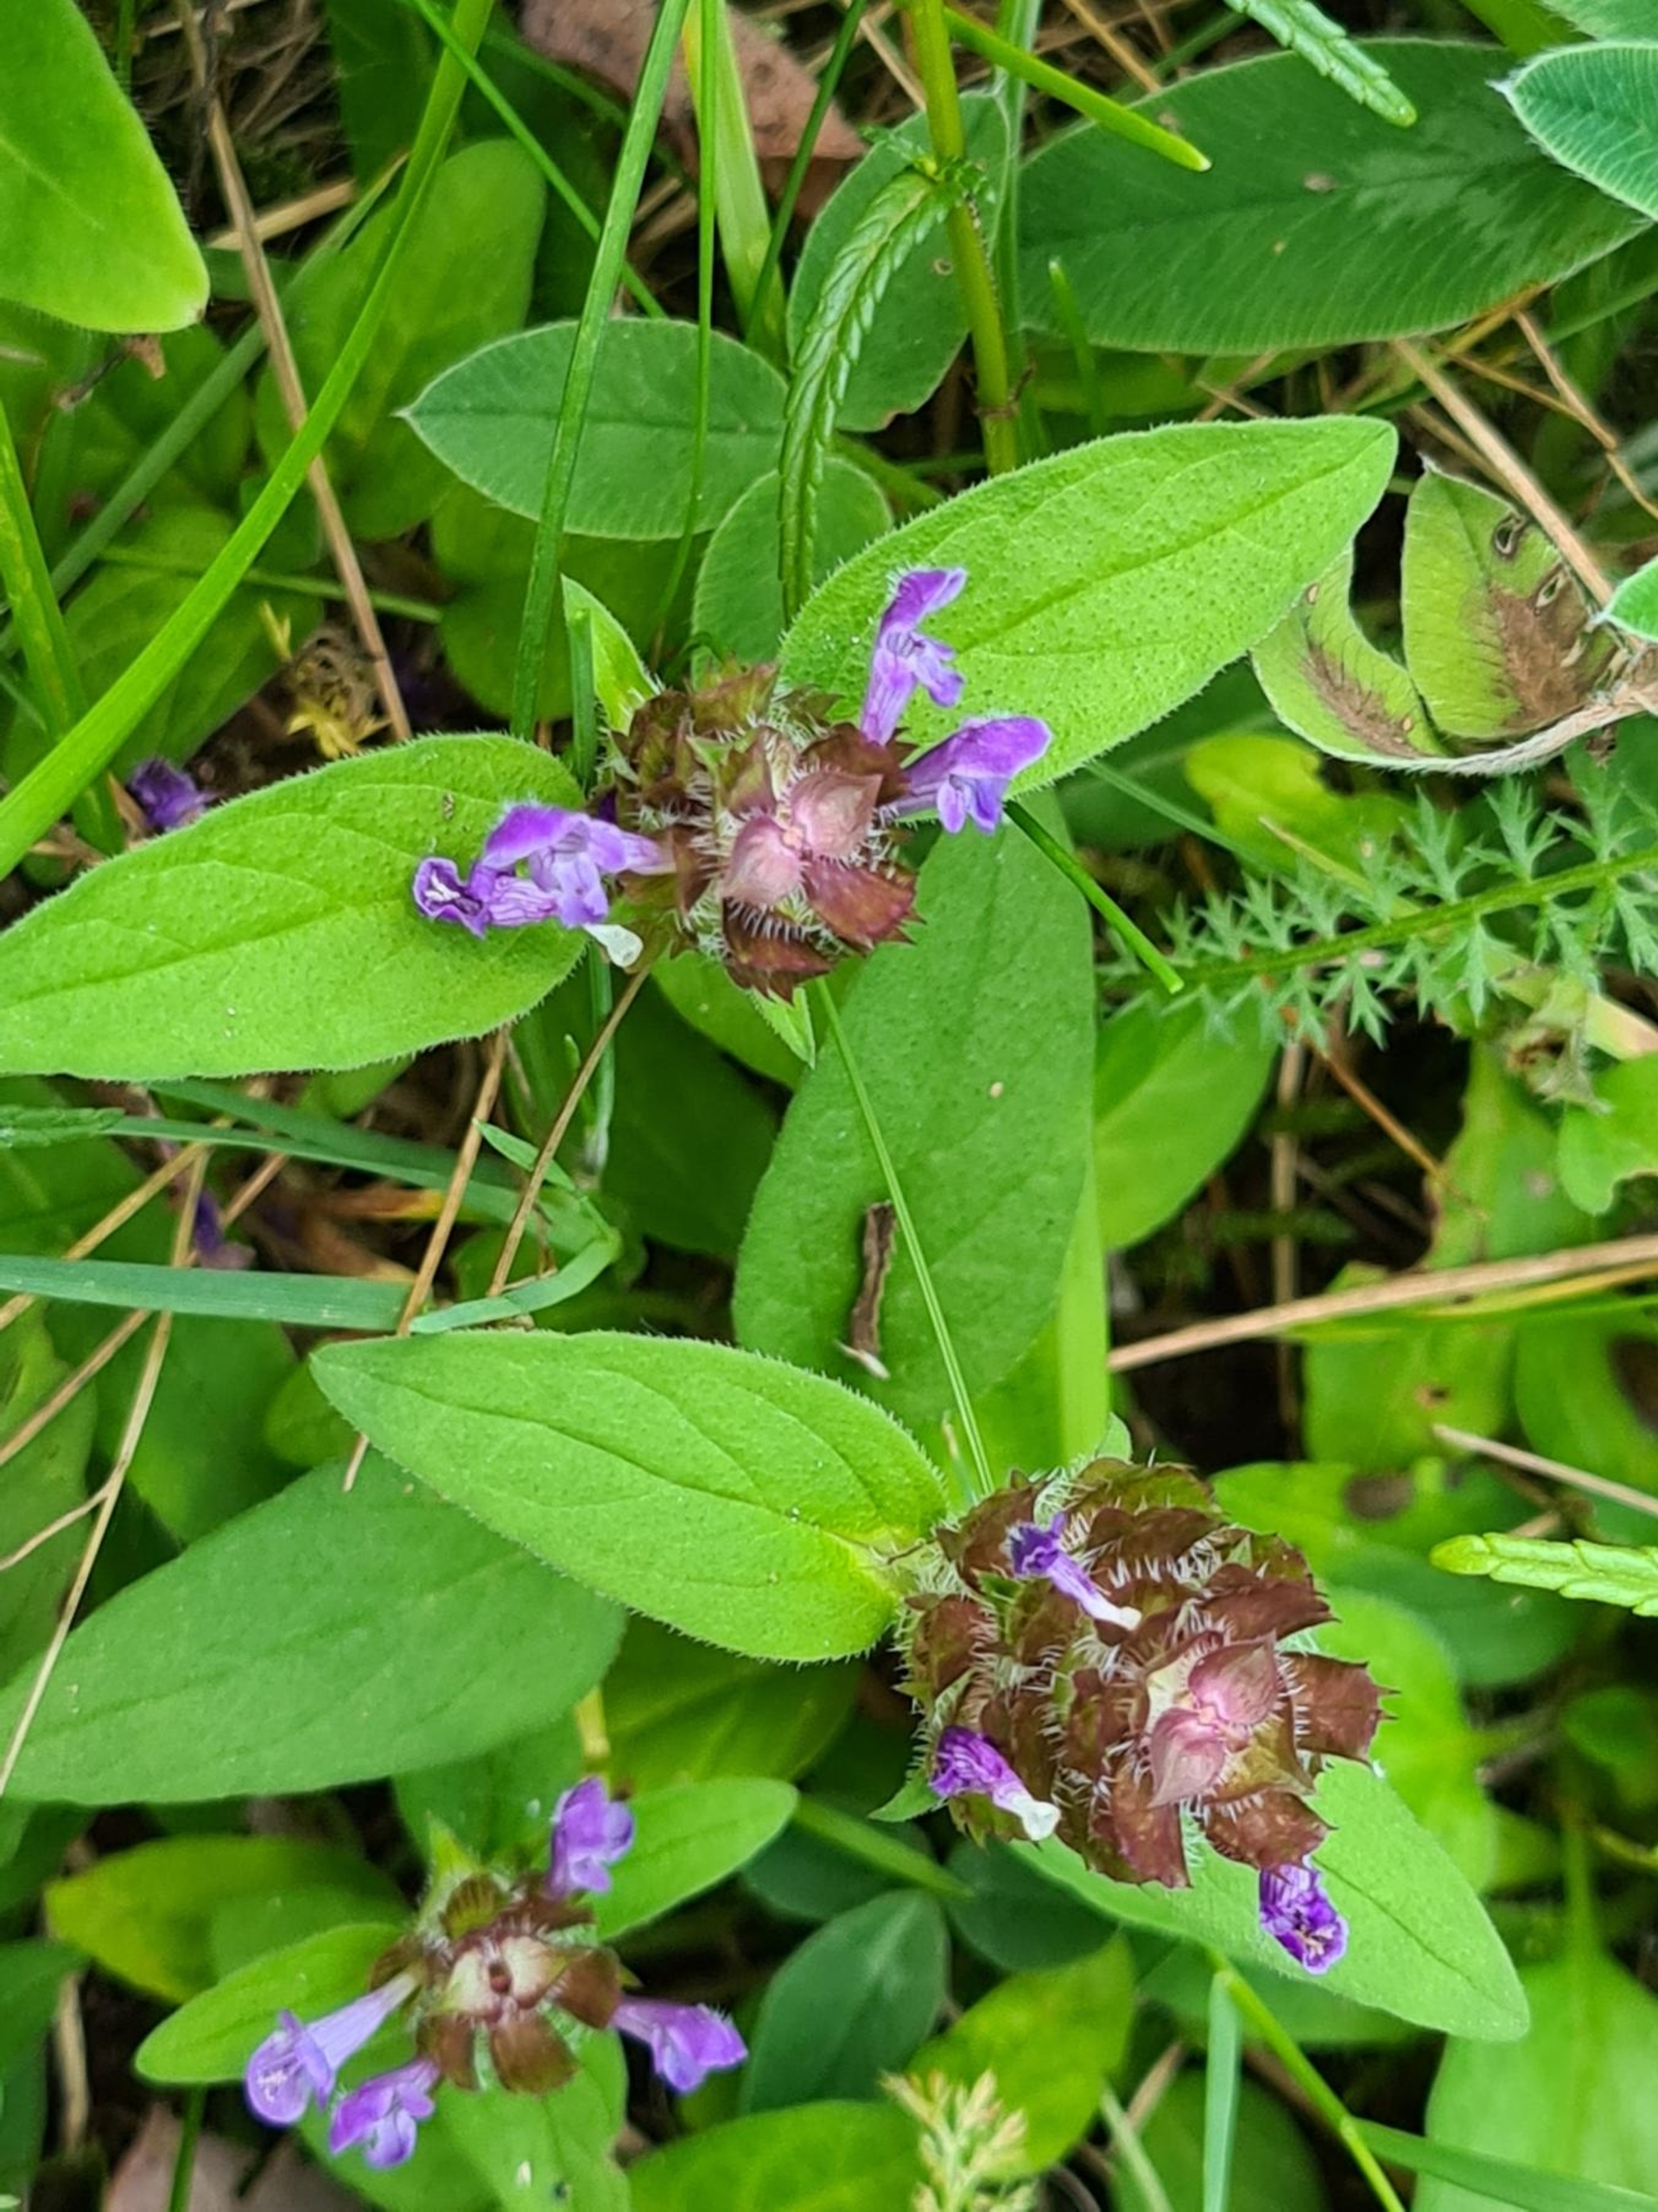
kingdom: Plantae
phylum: Tracheophyta
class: Magnoliopsida
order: Lamiales
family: Lamiaceae
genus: Prunella
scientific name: Prunella vulgaris
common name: Almindelig brunelle
